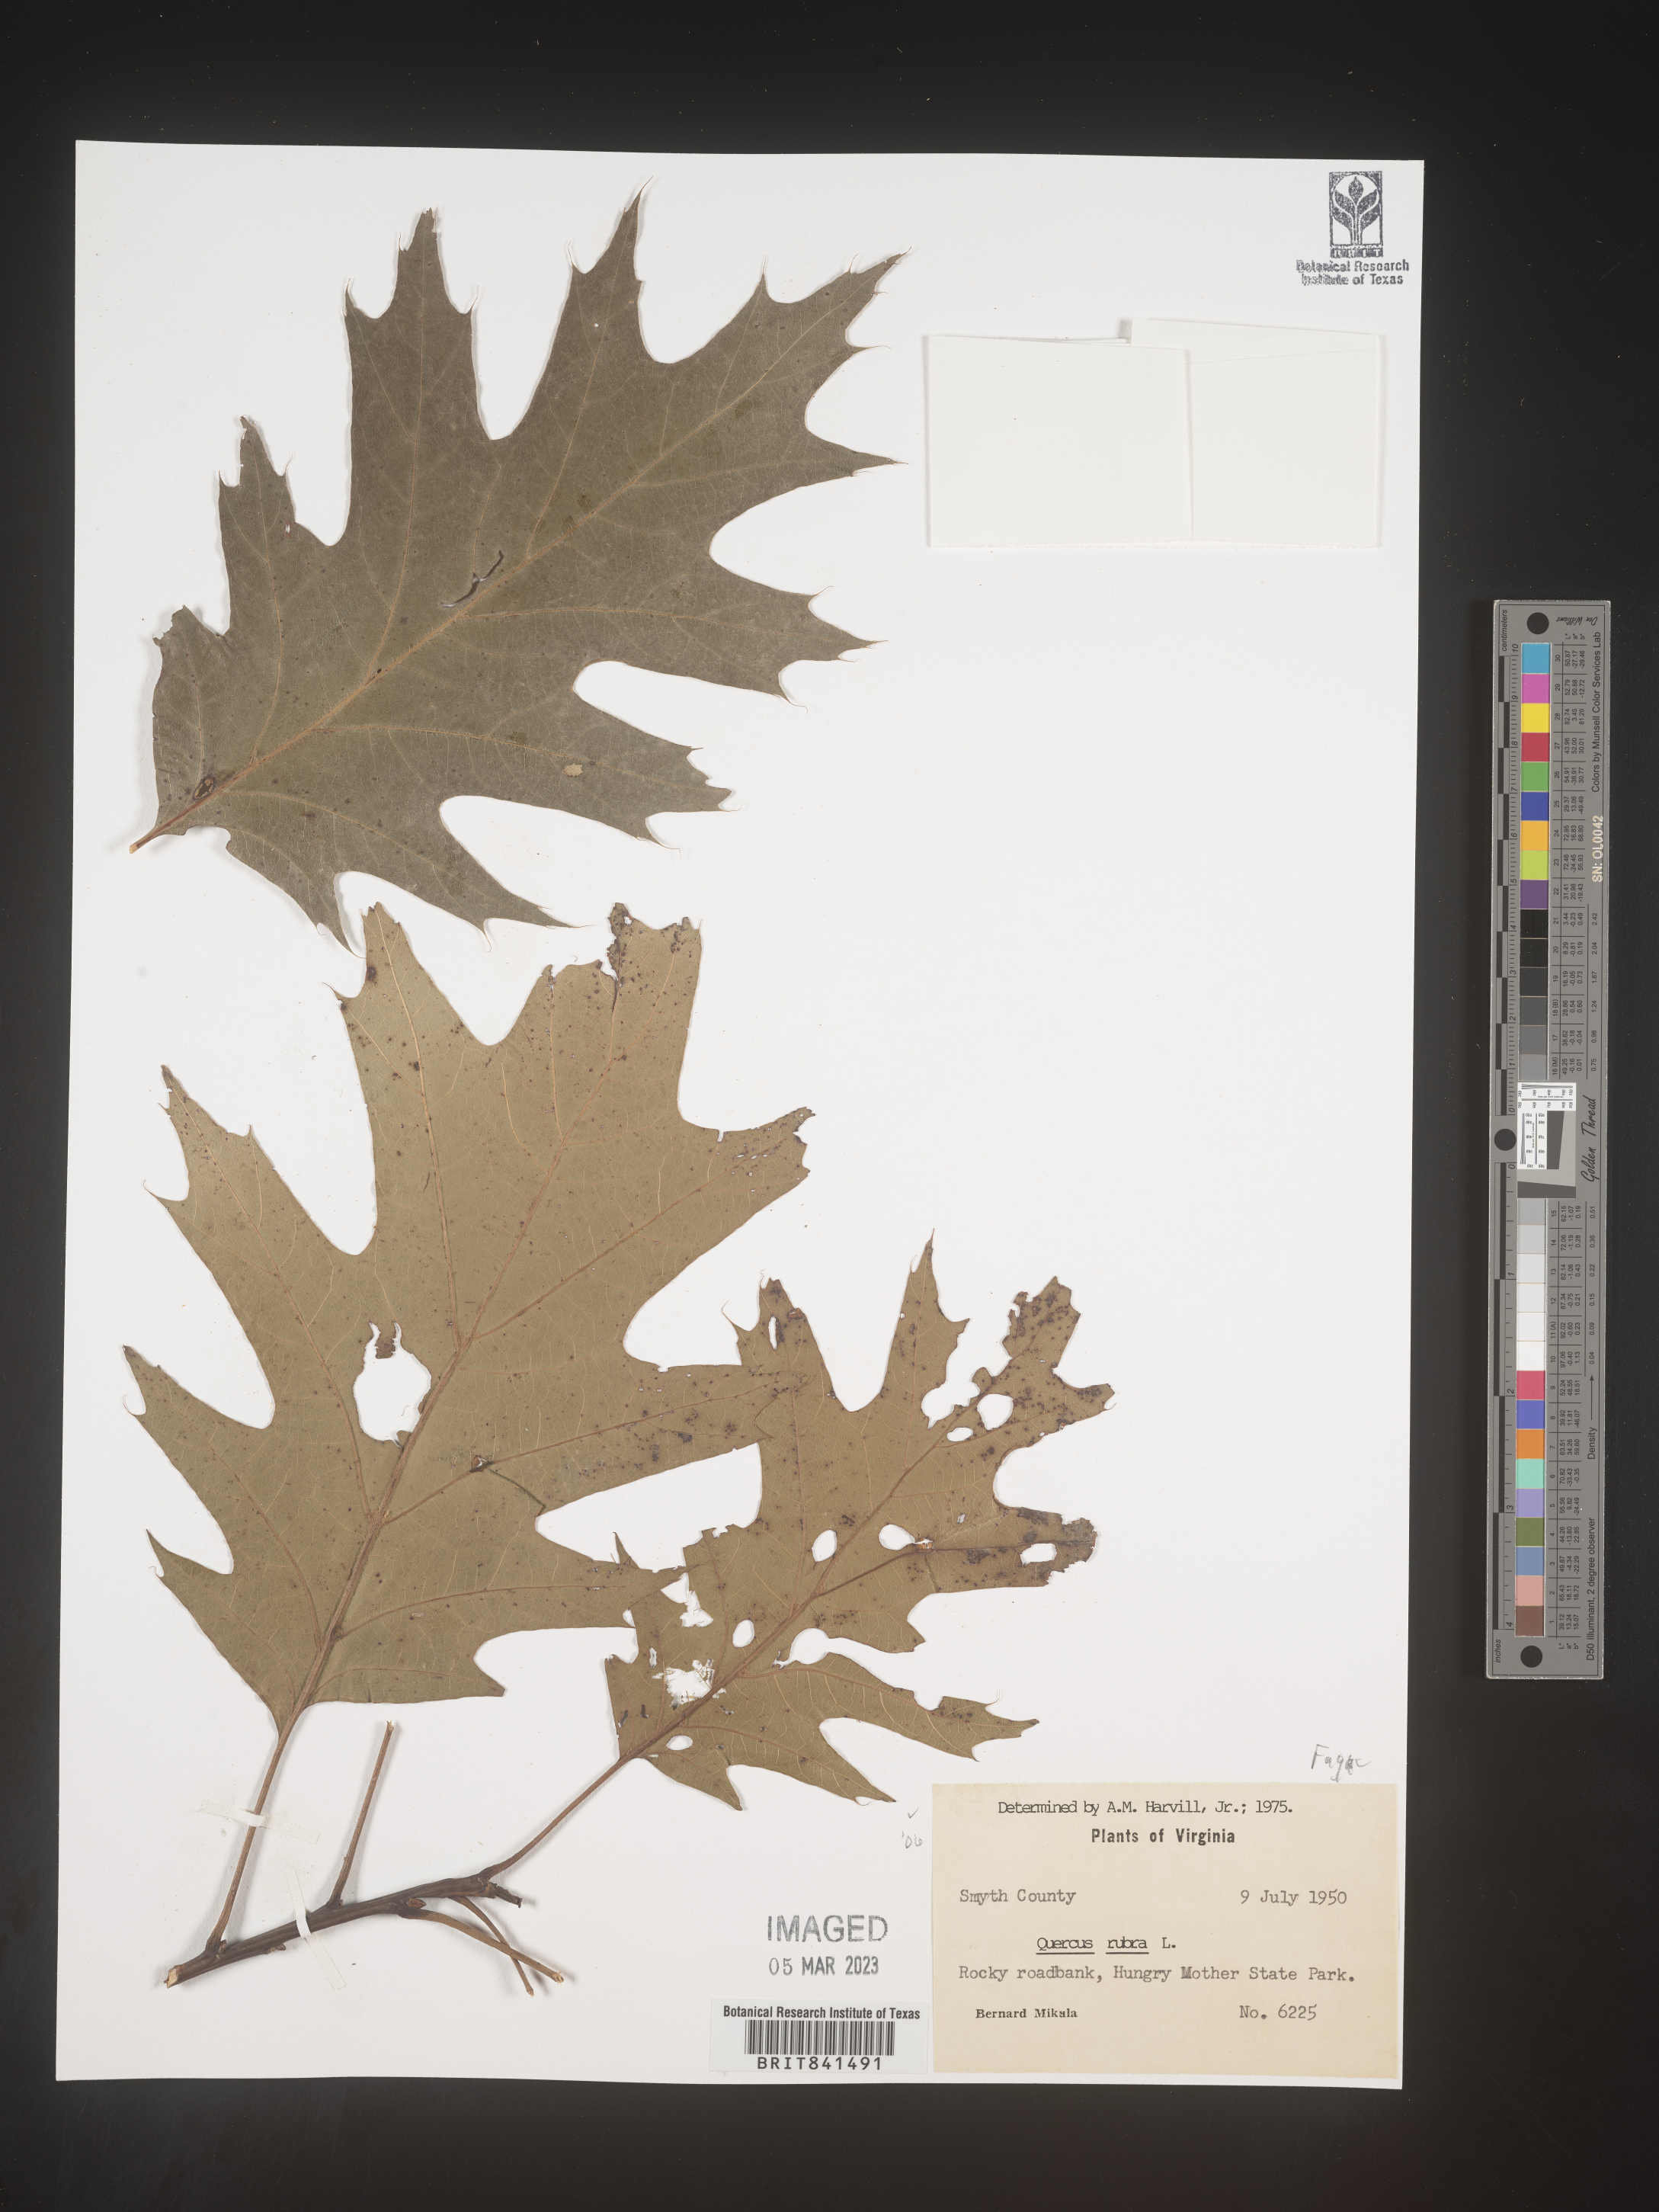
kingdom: Plantae
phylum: Tracheophyta
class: Magnoliopsida
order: Fagales
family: Fagaceae
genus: Quercus
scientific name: Quercus rubra
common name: Red oak
